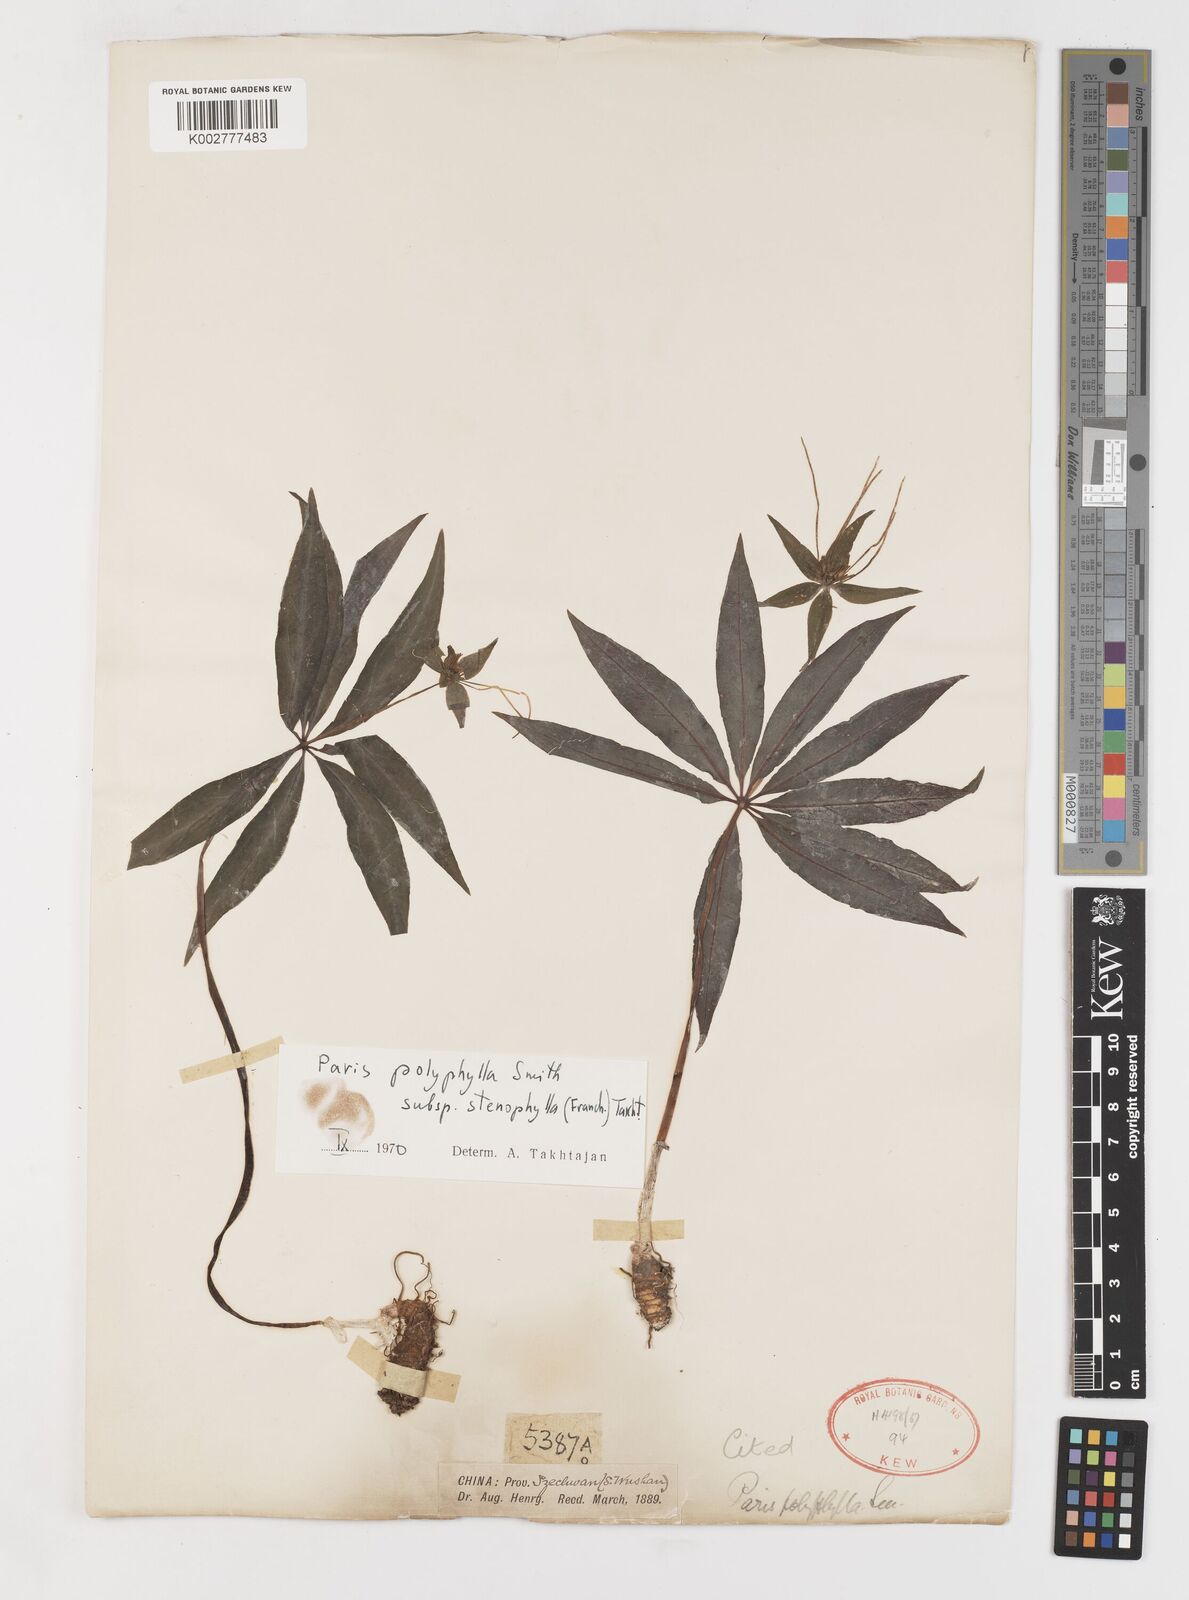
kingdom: Plantae
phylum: Tracheophyta
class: Liliopsida
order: Liliales
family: Melanthiaceae
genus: Paris
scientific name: Paris lancifolia
